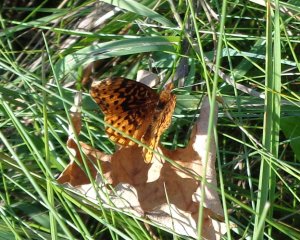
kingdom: Animalia
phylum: Arthropoda
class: Insecta
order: Lepidoptera
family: Nymphalidae
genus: Clossiana
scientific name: Clossiana toddi
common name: Meadow Fritillary
